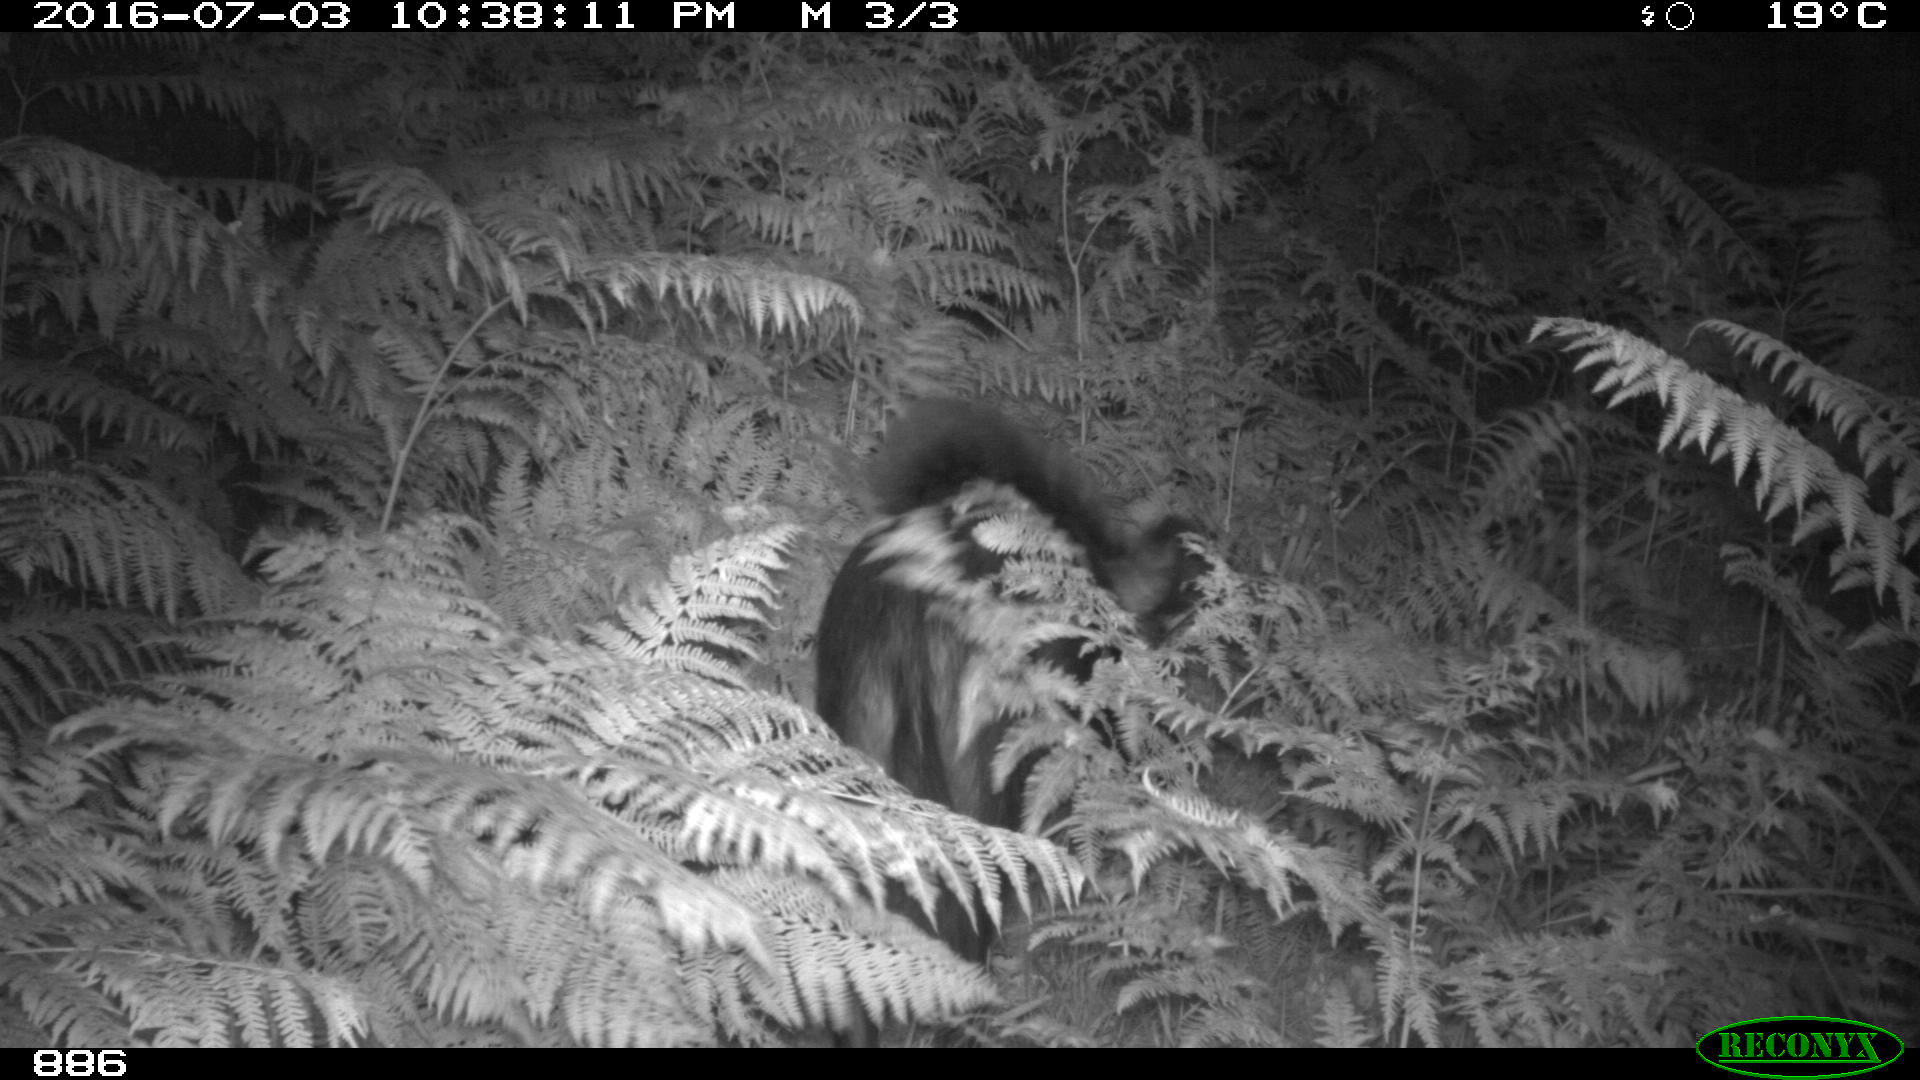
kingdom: Animalia
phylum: Chordata
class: Mammalia
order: Artiodactyla
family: Suidae
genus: Sus
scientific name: Sus scrofa
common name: Wild boar
